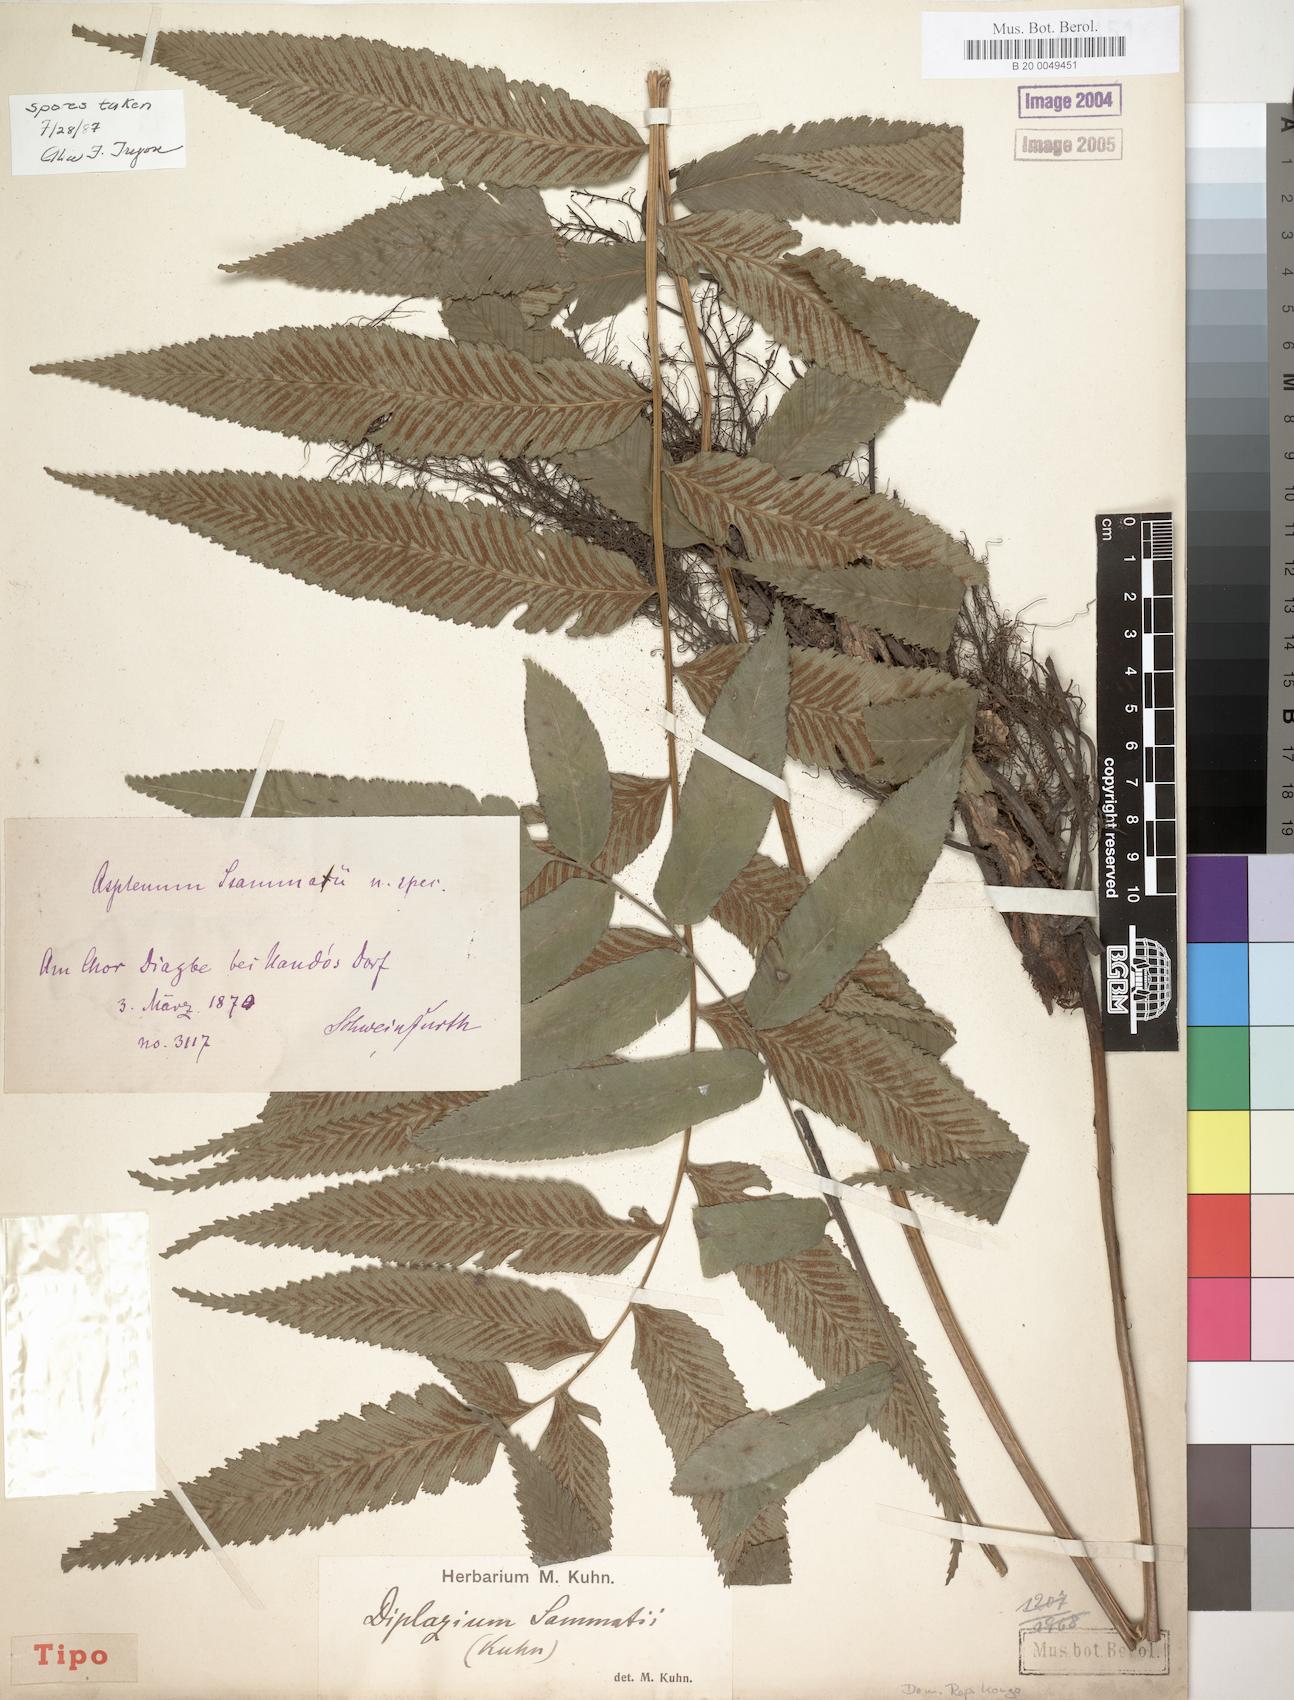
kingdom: Plantae
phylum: Tracheophyta
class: Polypodiopsida
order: Polypodiales
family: Athyriaceae
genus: Diplazium
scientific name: Diplazium sammatii
